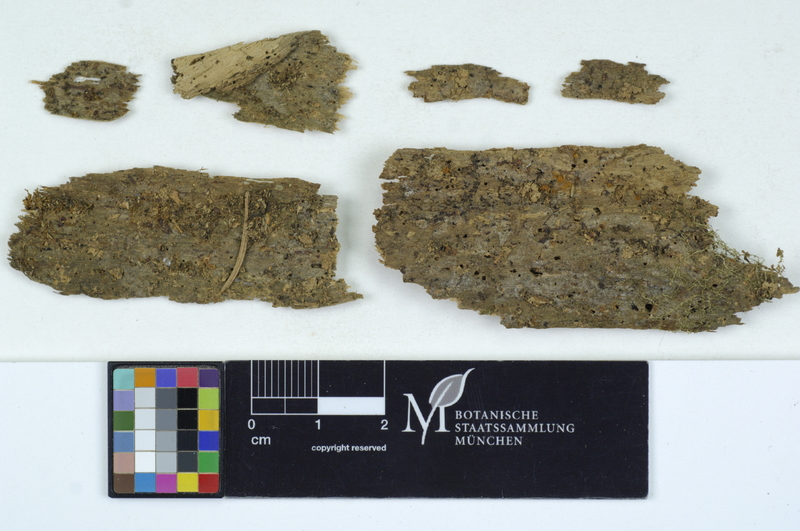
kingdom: Fungi
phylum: Basidiomycota
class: Agaricomycetes
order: Auriculariales
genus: Mycostilla
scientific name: Mycostilla vermiformis
